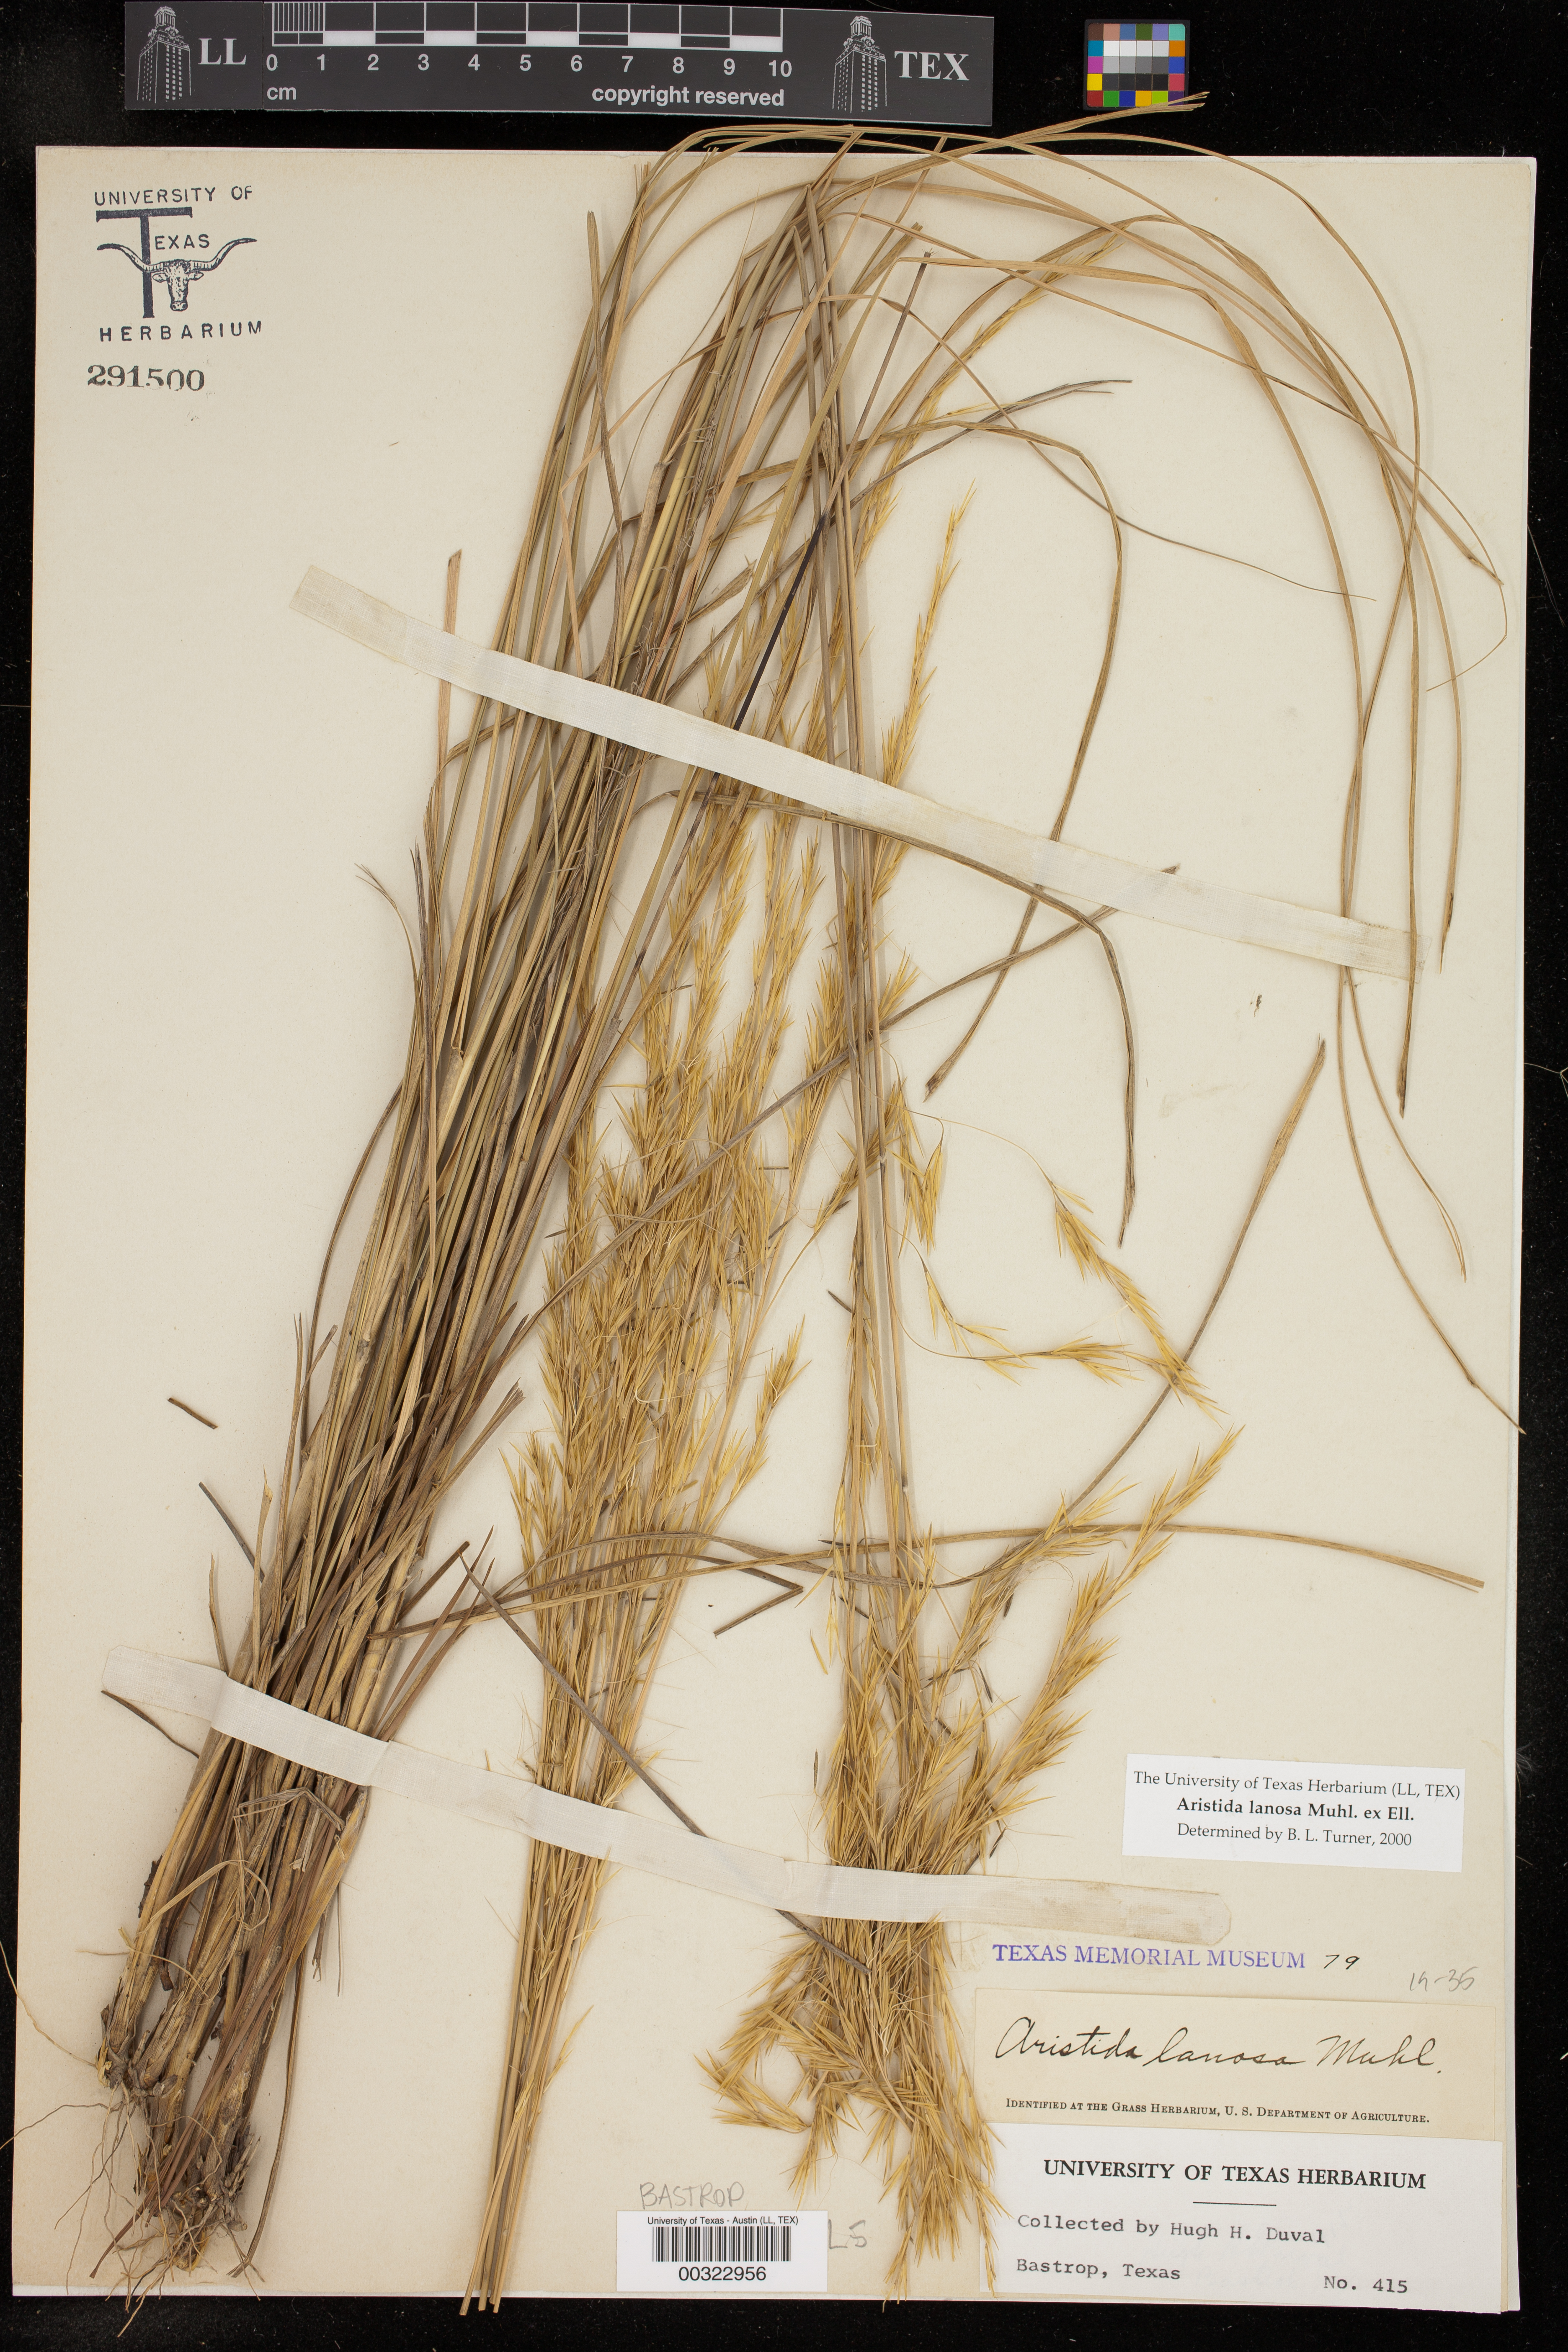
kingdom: Plantae
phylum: Tracheophyta
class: Liliopsida
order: Poales
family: Poaceae
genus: Aristida
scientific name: Aristida lanosa
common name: Woolly three-awn
